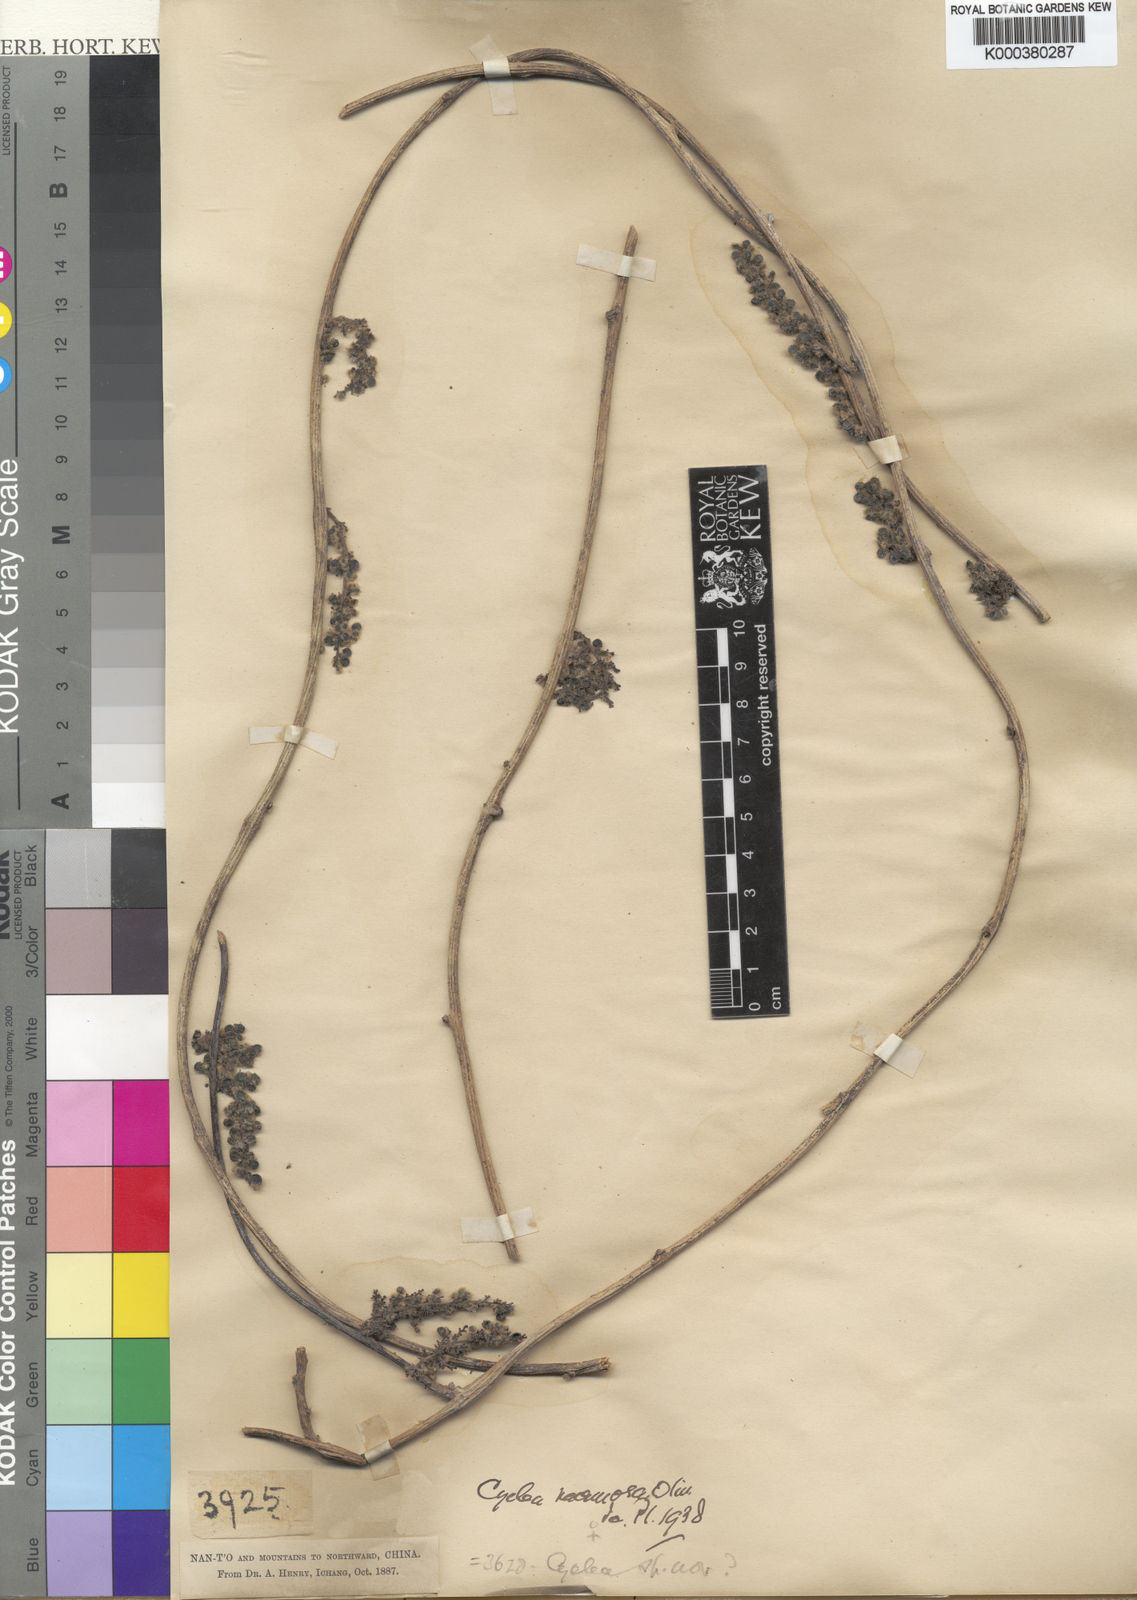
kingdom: Plantae
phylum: Tracheophyta
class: Magnoliopsida
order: Ranunculales
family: Menispermaceae
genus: Cyclea
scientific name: Cyclea racemosa
